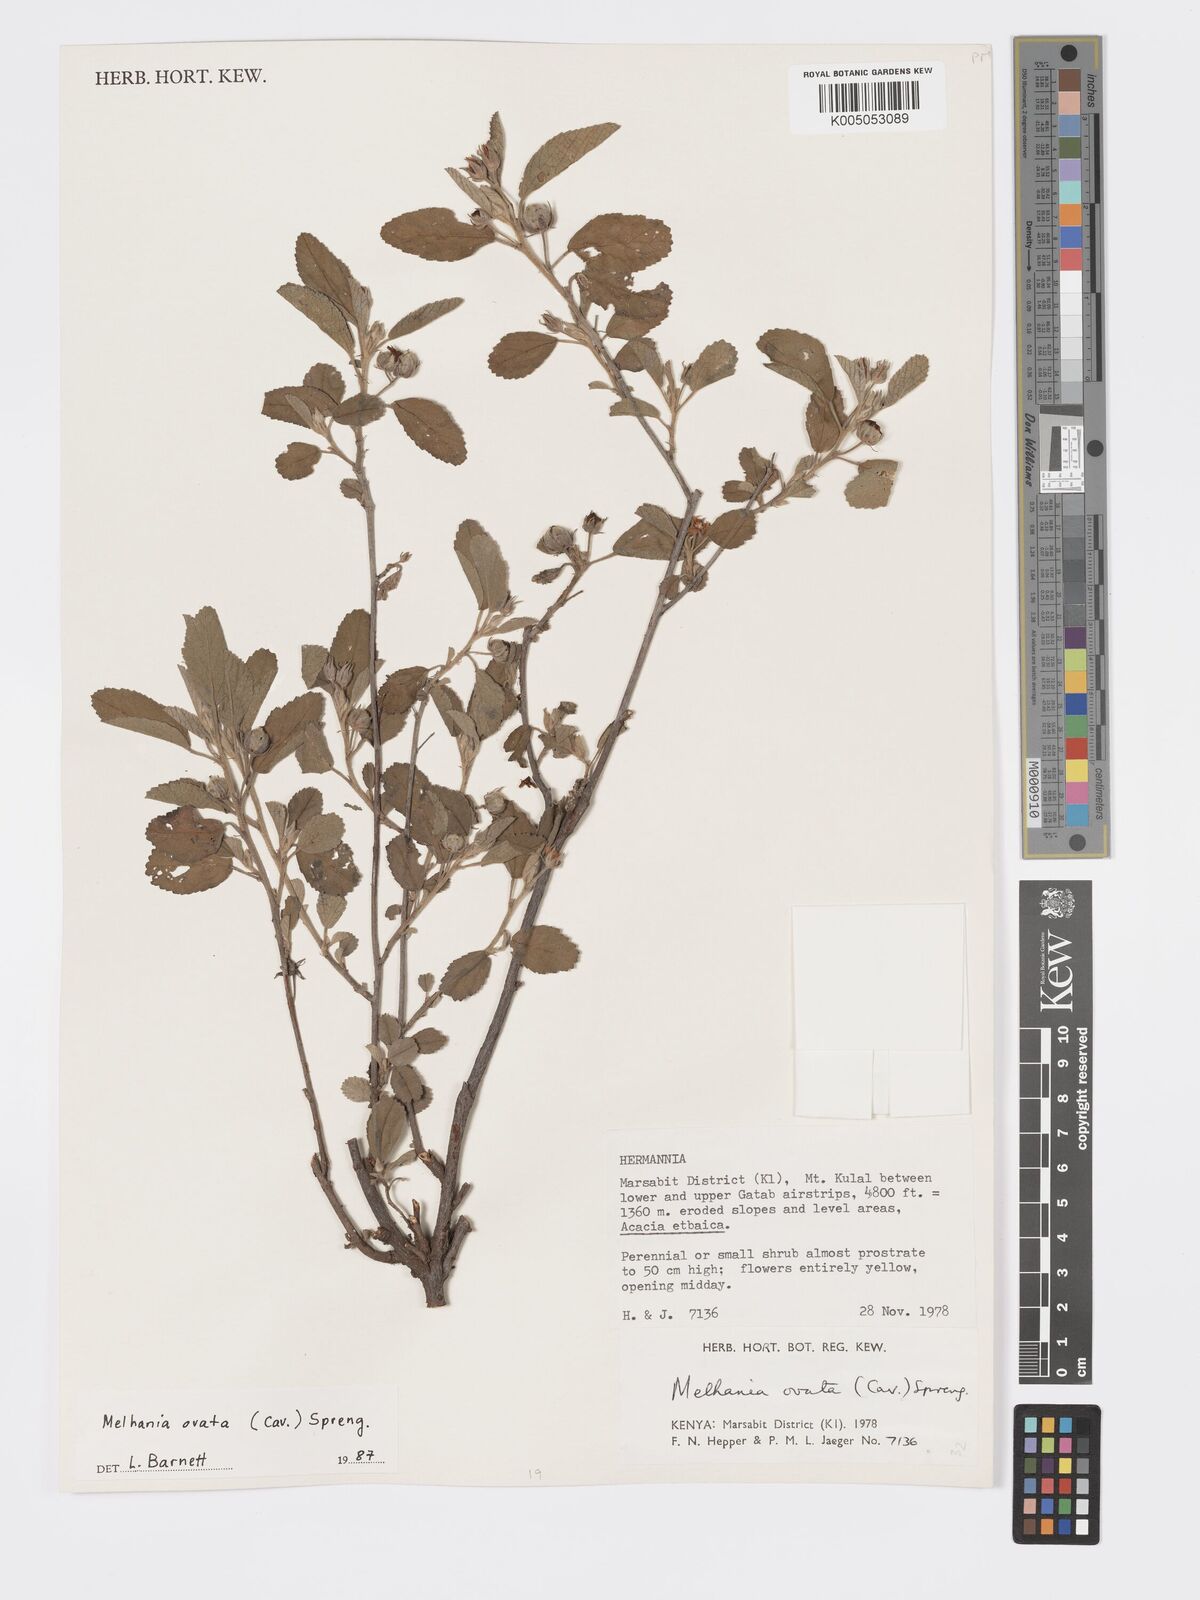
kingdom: Plantae
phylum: Tracheophyta
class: Magnoliopsida
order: Malvales
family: Malvaceae
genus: Melhania
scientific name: Melhania ovata
